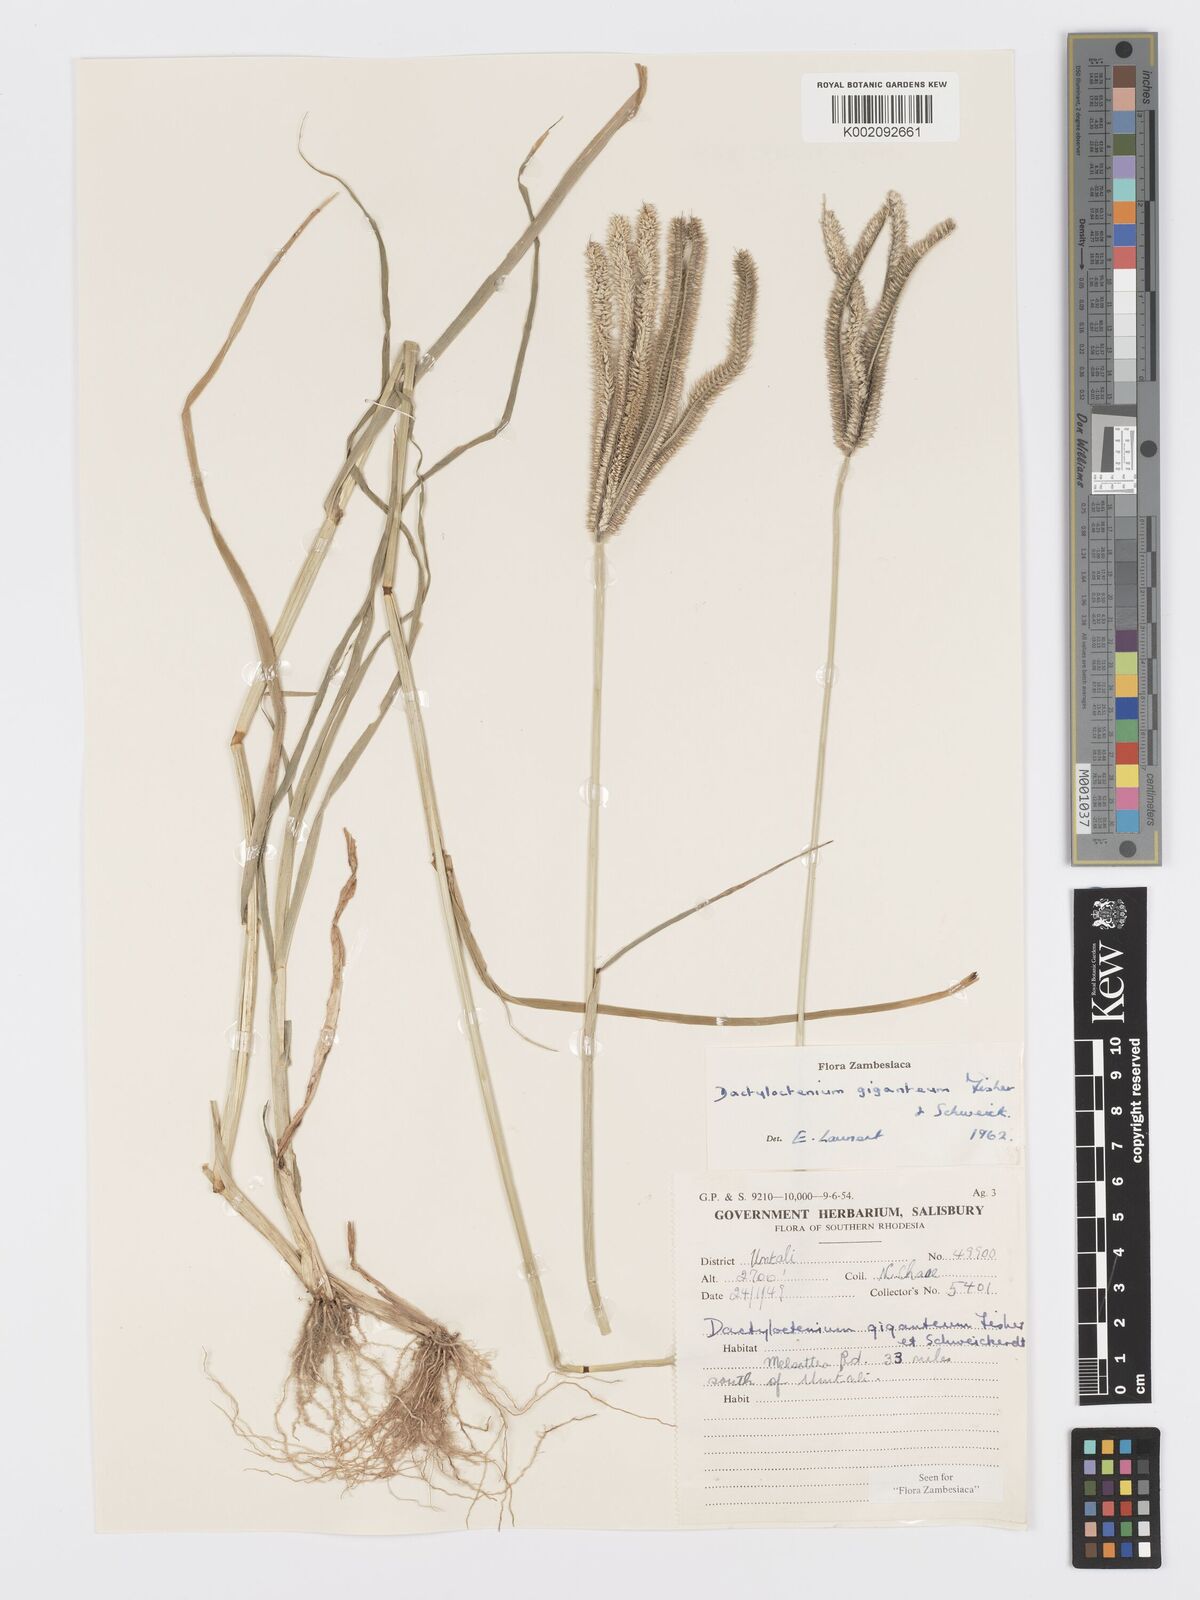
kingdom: Plantae
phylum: Tracheophyta
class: Liliopsida
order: Poales
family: Poaceae
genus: Dactyloctenium
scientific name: Dactyloctenium giganteum
